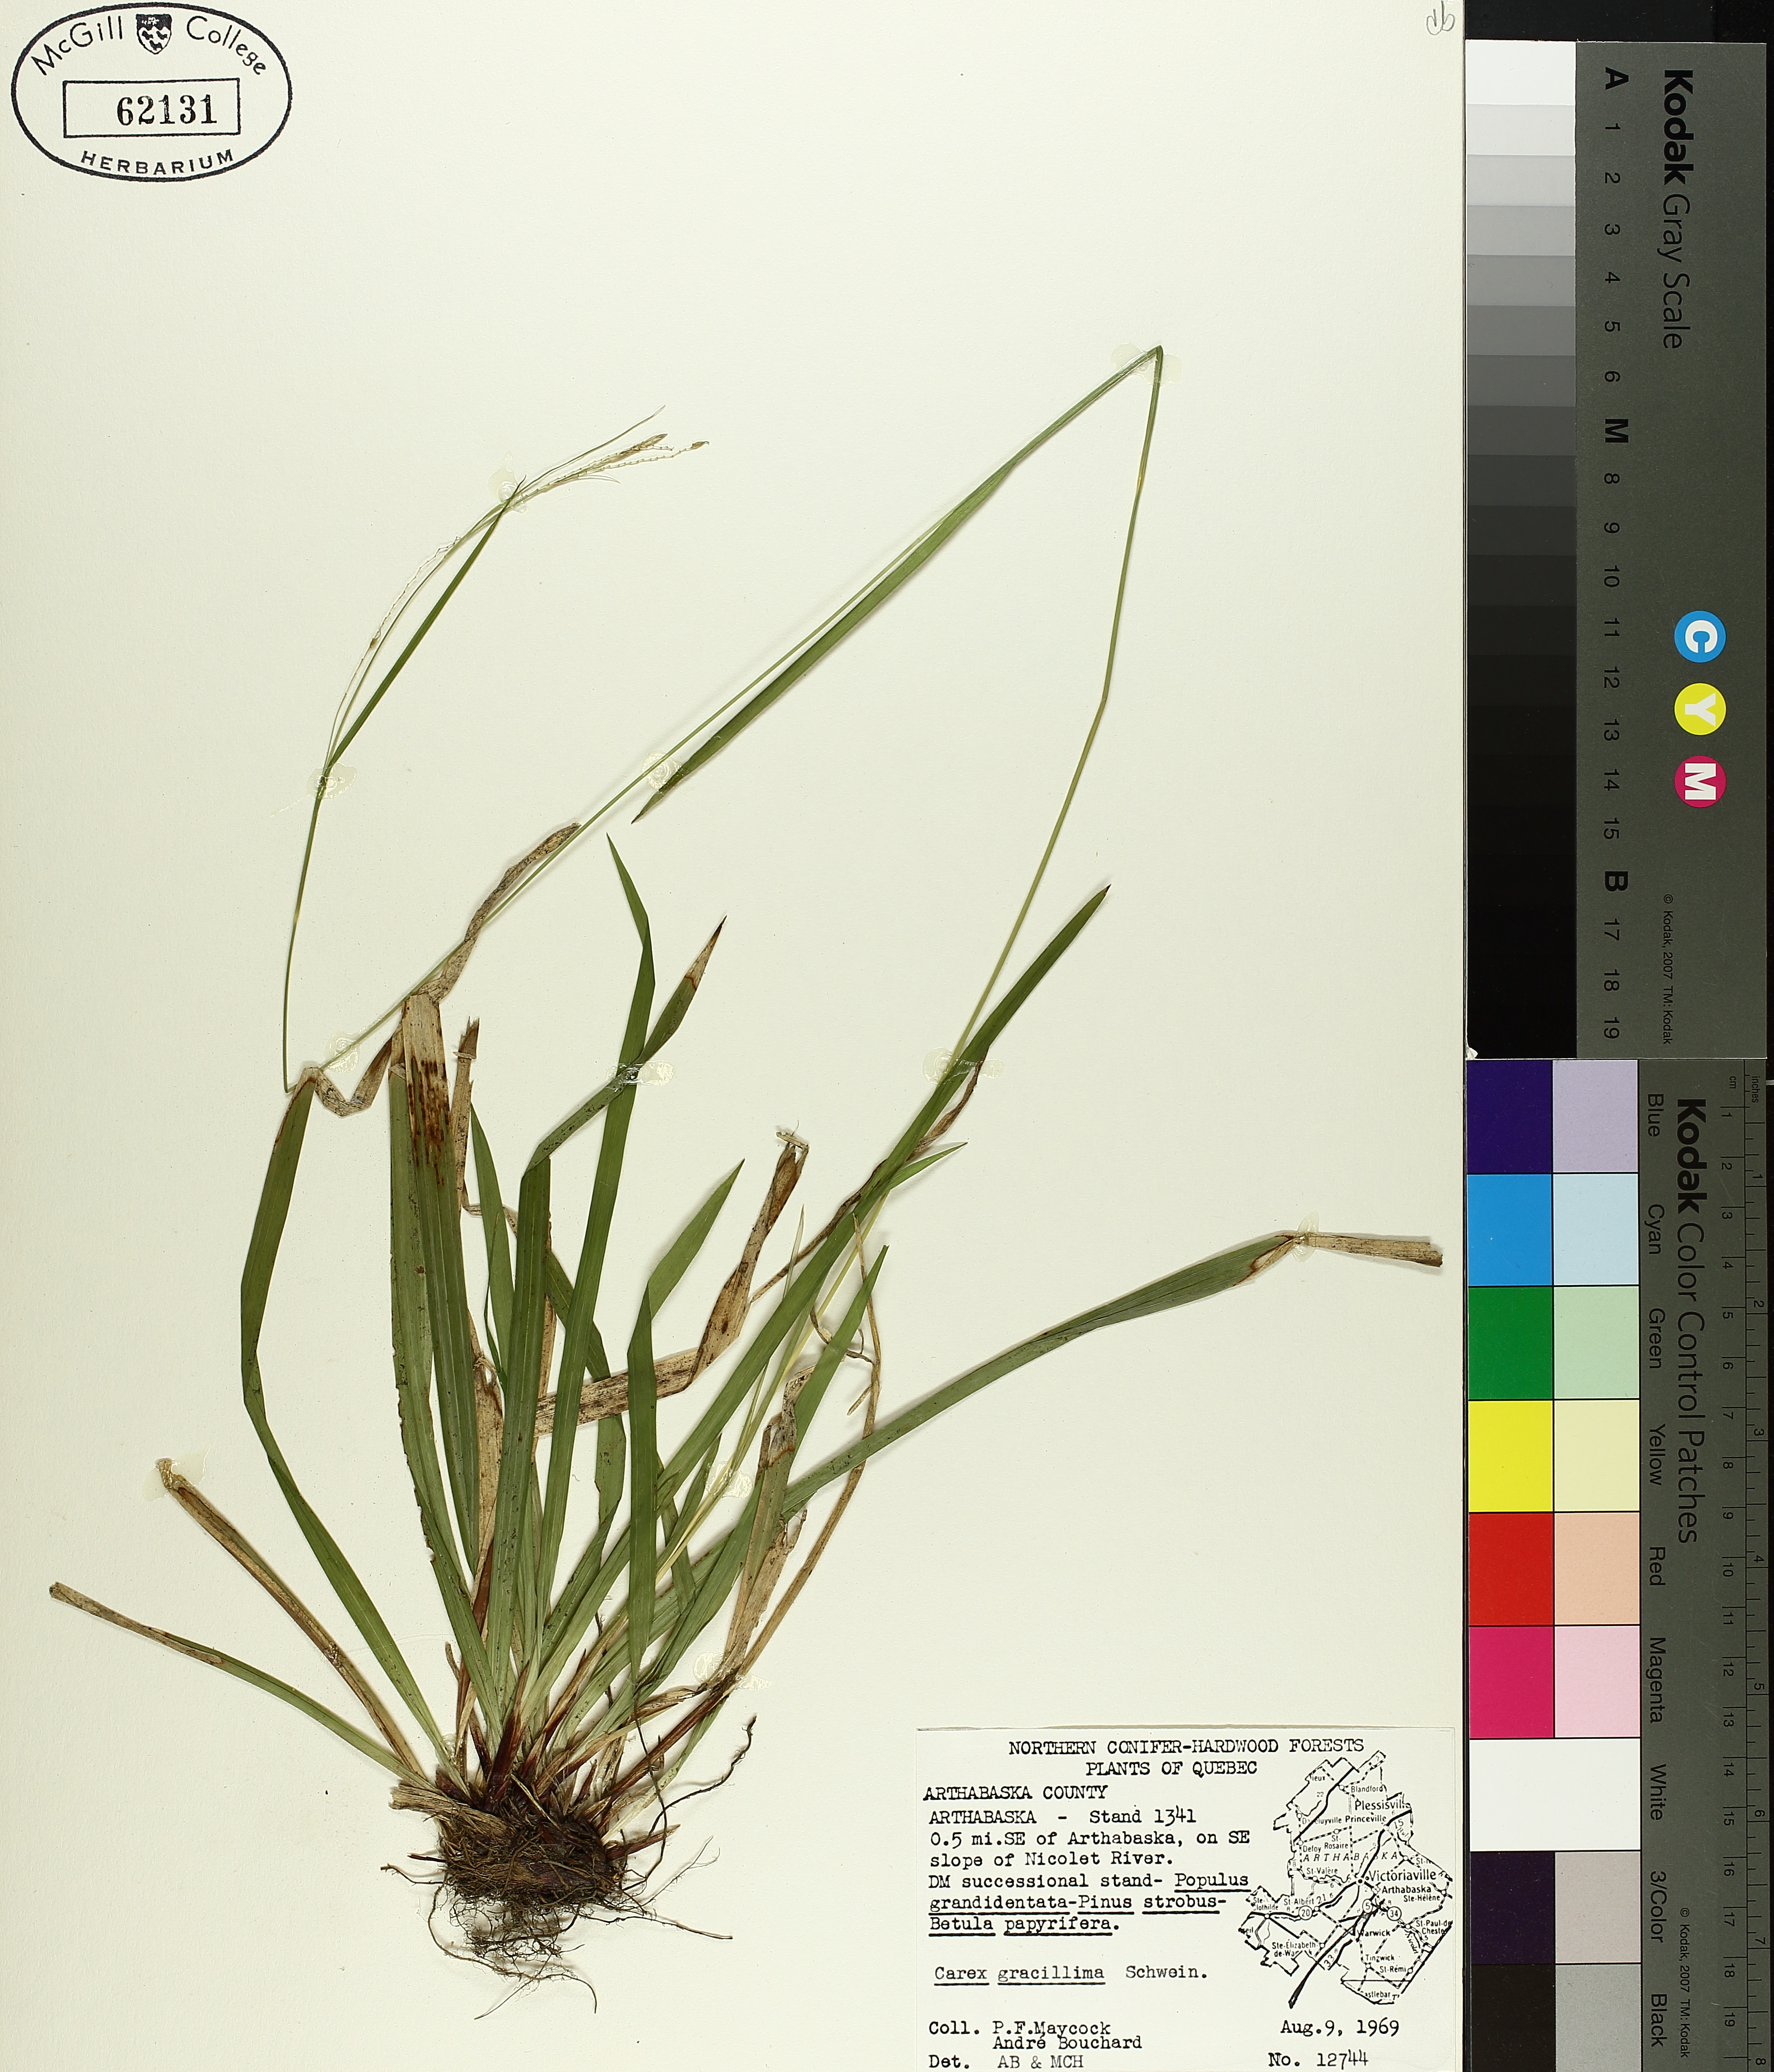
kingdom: Plantae
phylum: Tracheophyta
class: Liliopsida
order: Poales
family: Cyperaceae
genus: Carex
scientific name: Carex gracillima
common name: Graceful sedge
